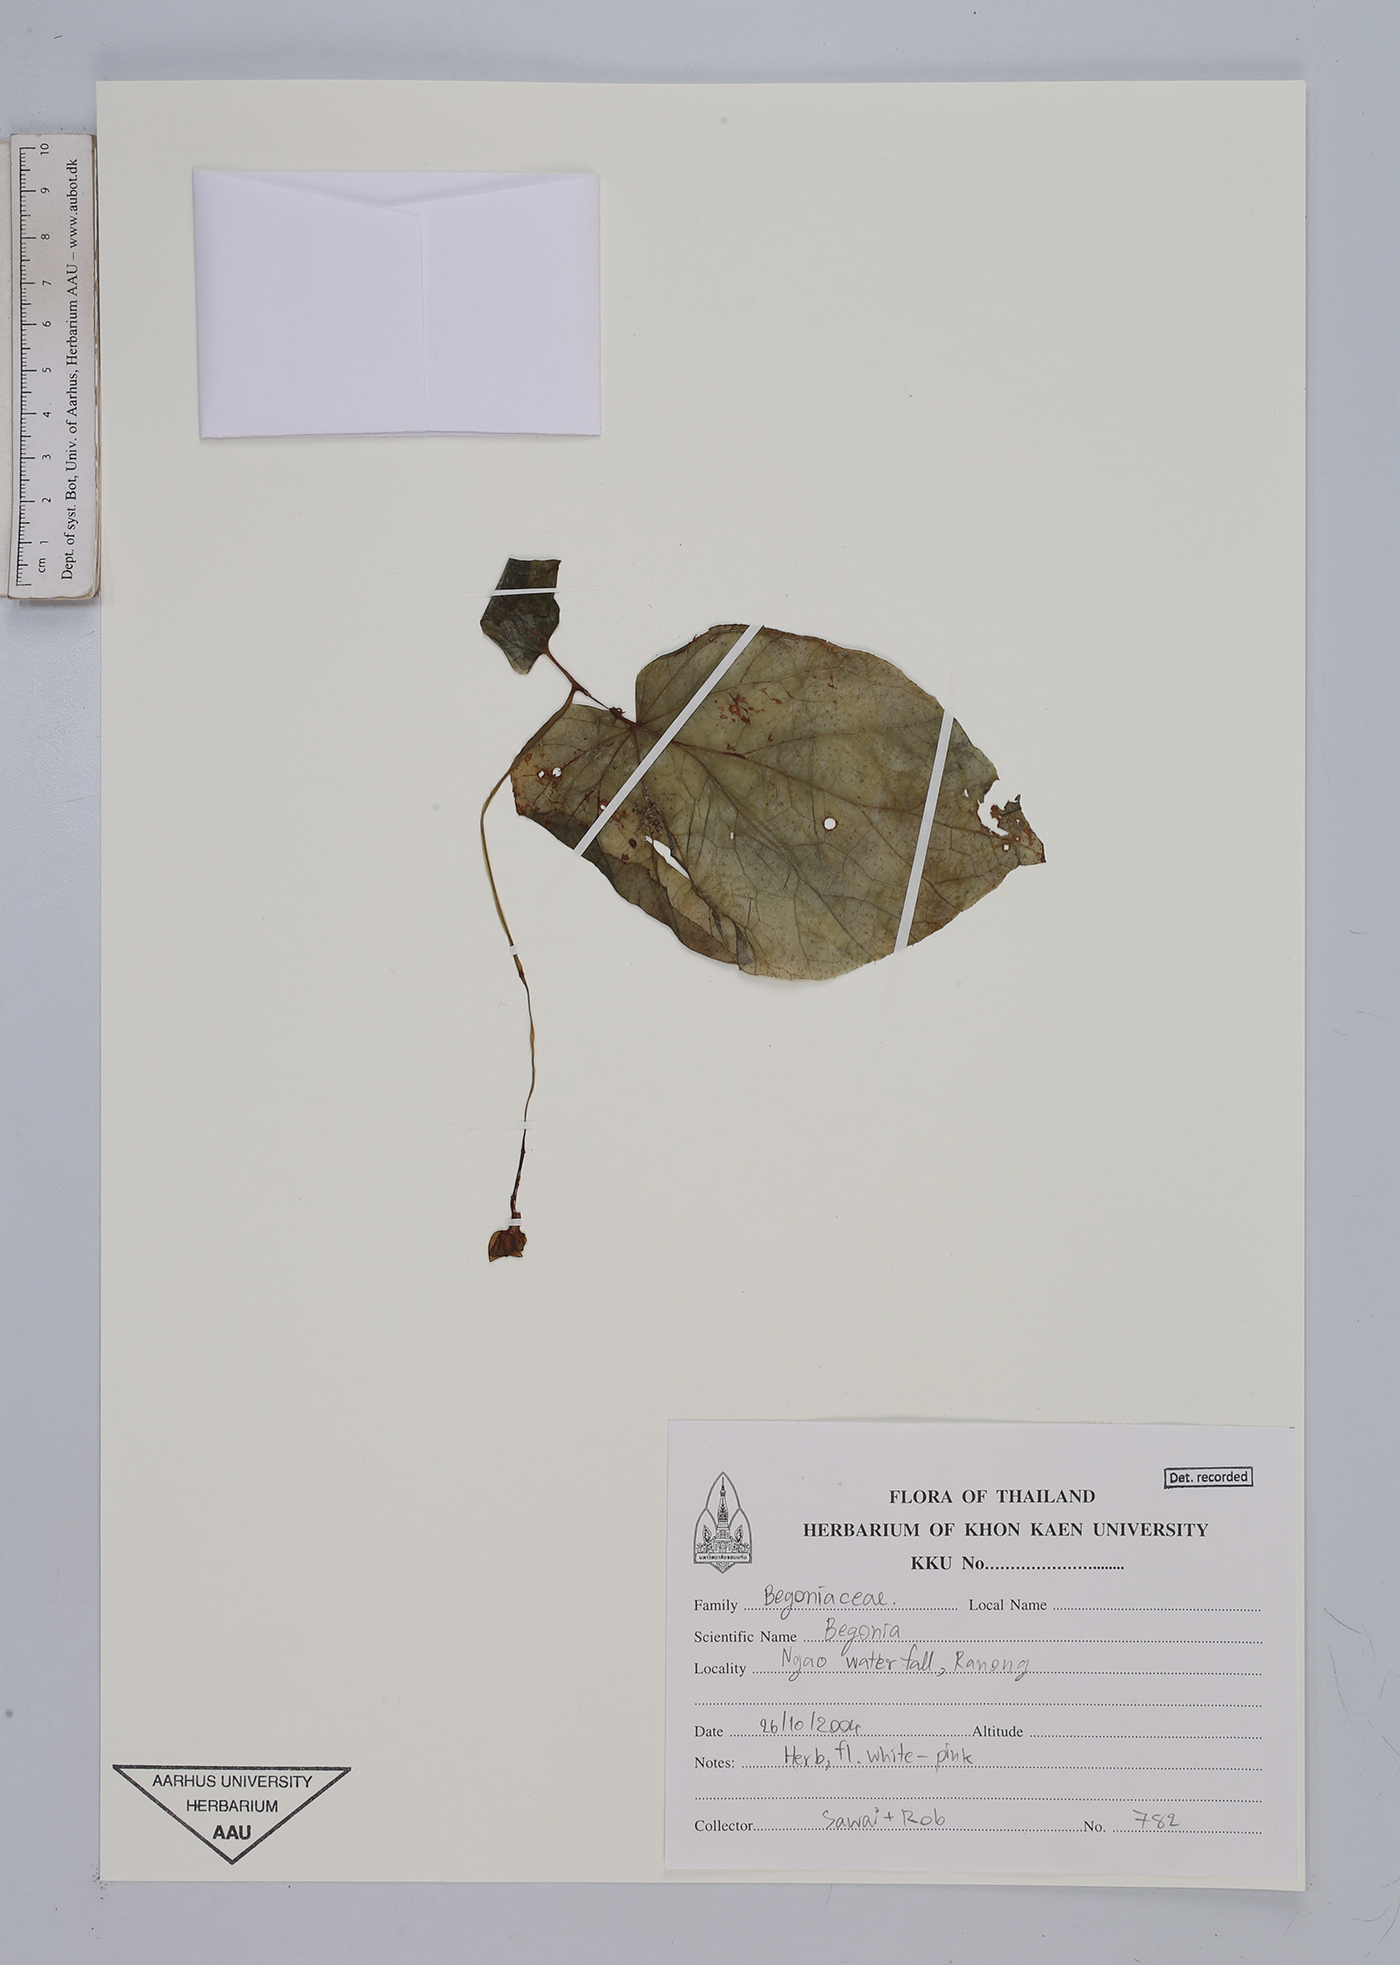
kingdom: Plantae
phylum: Tracheophyta
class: Magnoliopsida
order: Cucurbitales
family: Begoniaceae
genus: Begonia
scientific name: Begonia
